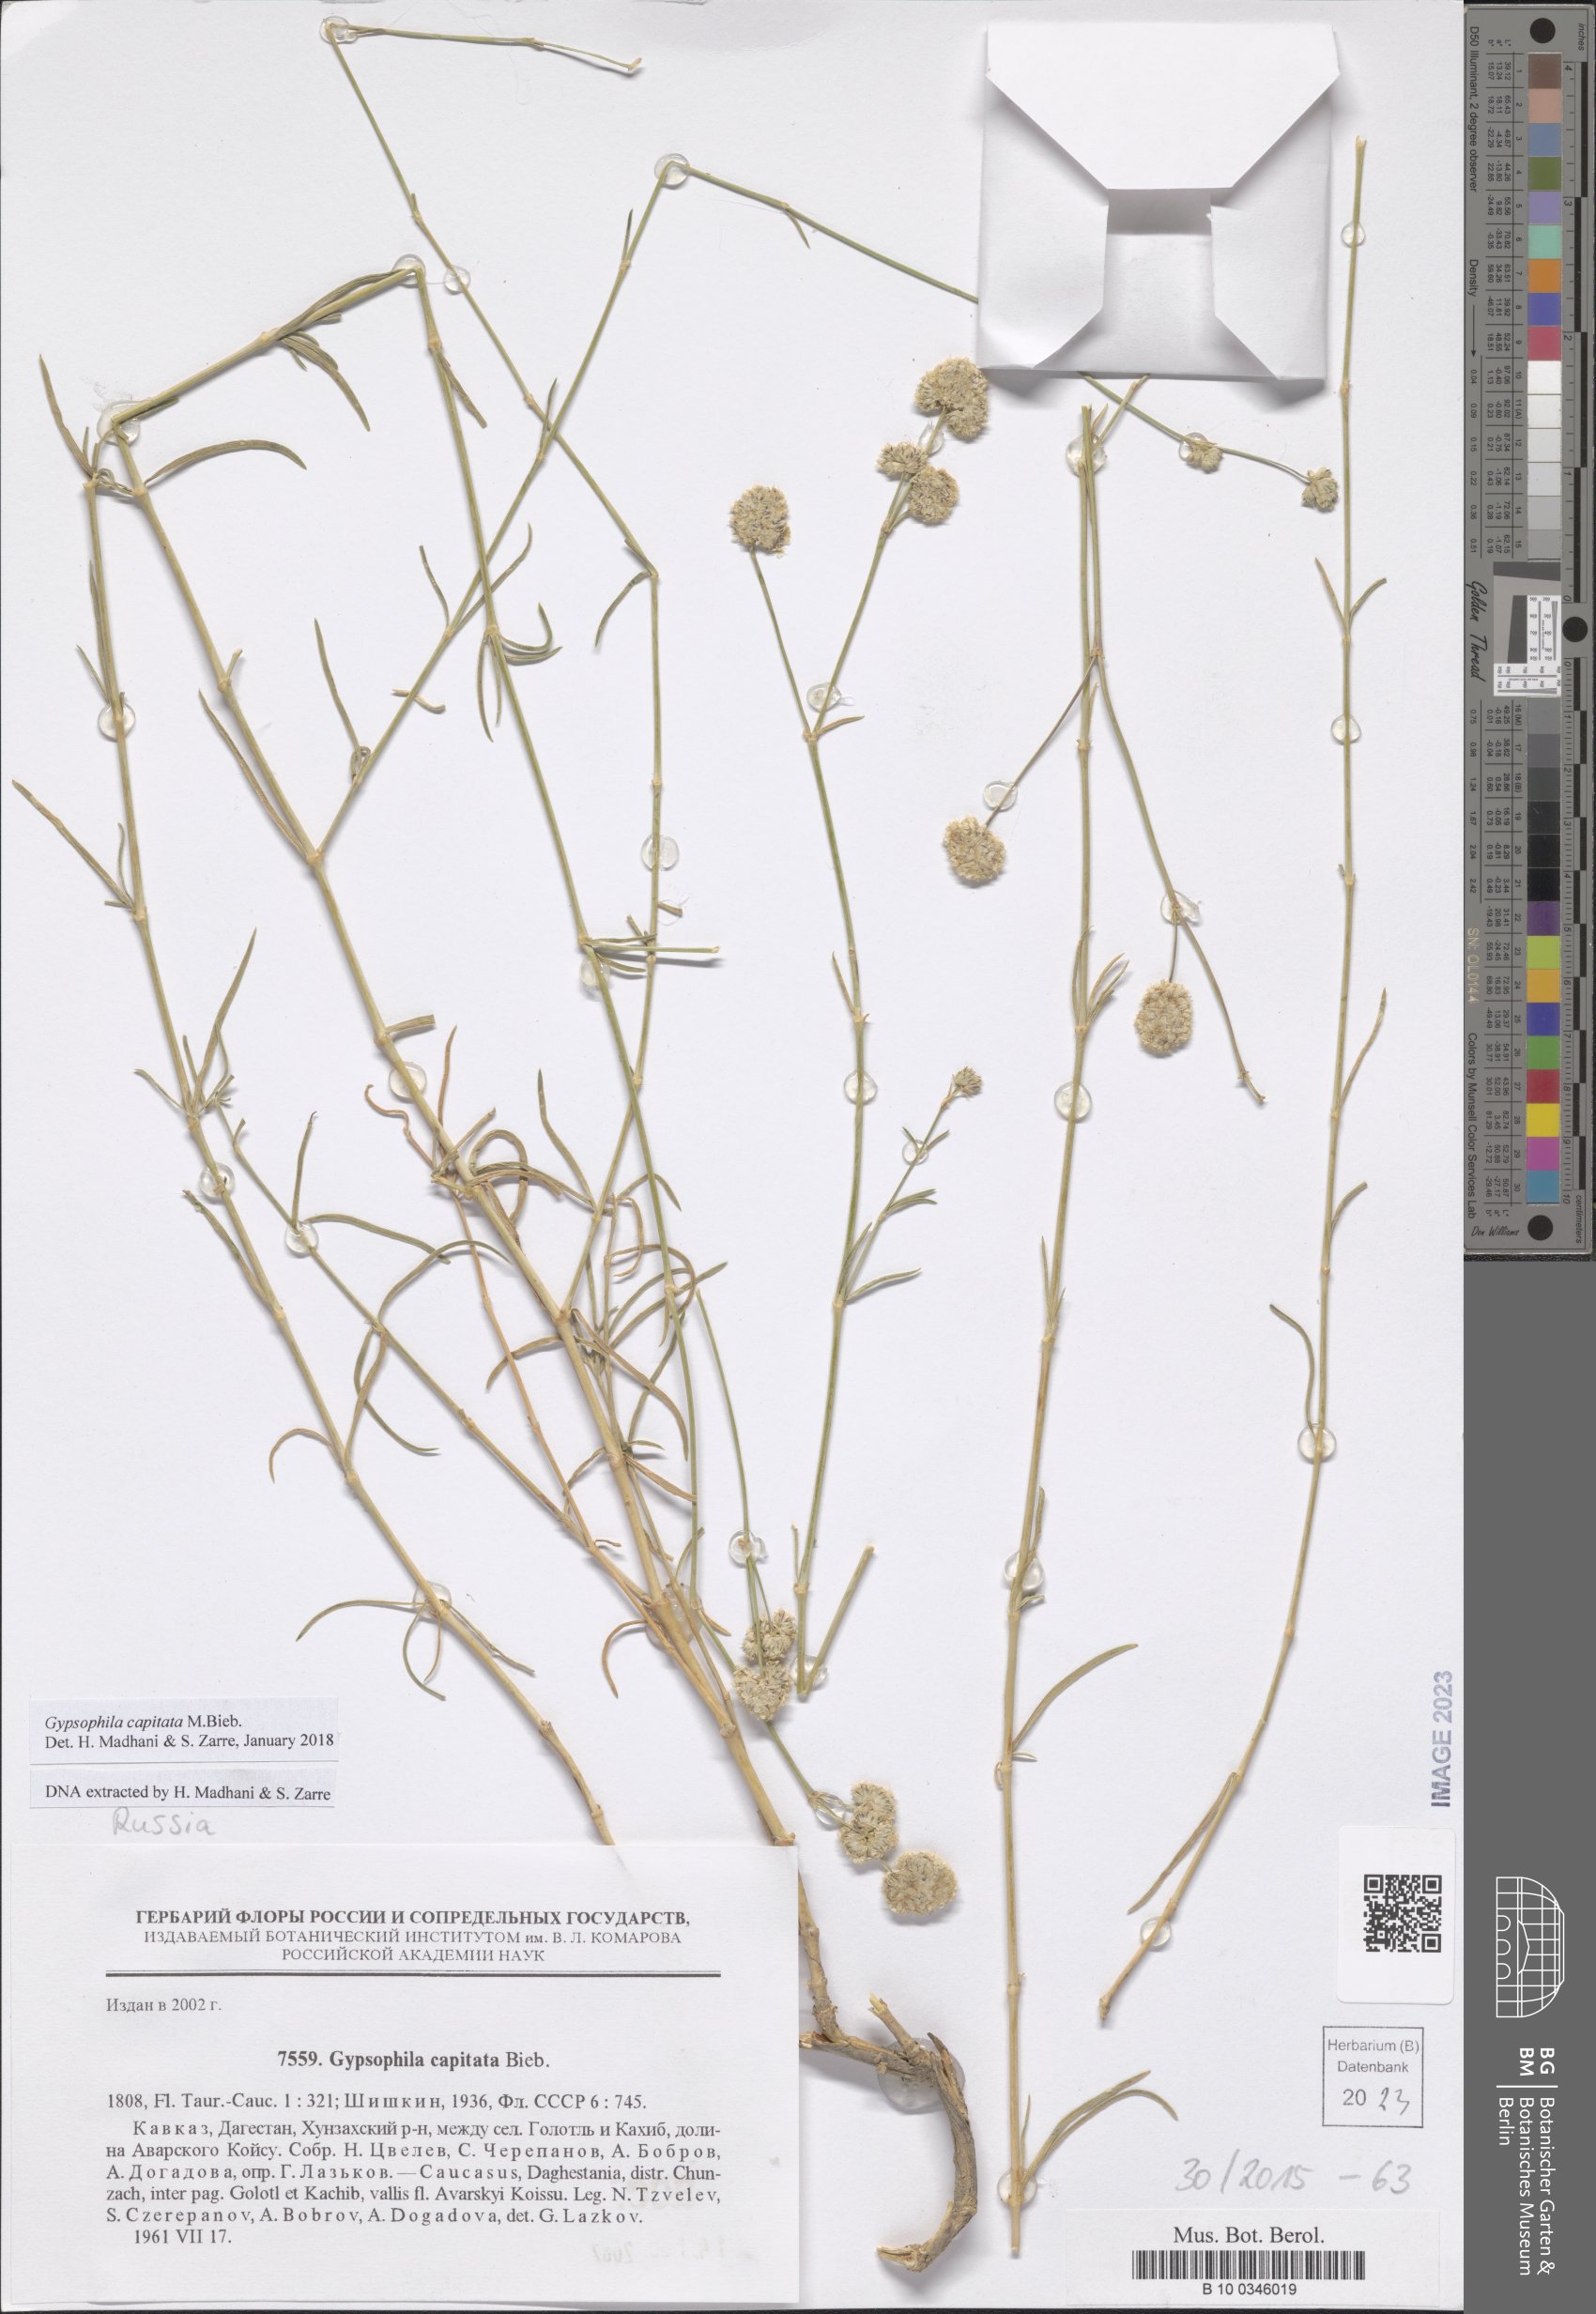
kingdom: Plantae
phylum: Tracheophyta
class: Magnoliopsida
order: Caryophyllales
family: Caryophyllaceae
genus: Gypsophila
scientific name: Gypsophila capitata
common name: Capitate chalk plant
